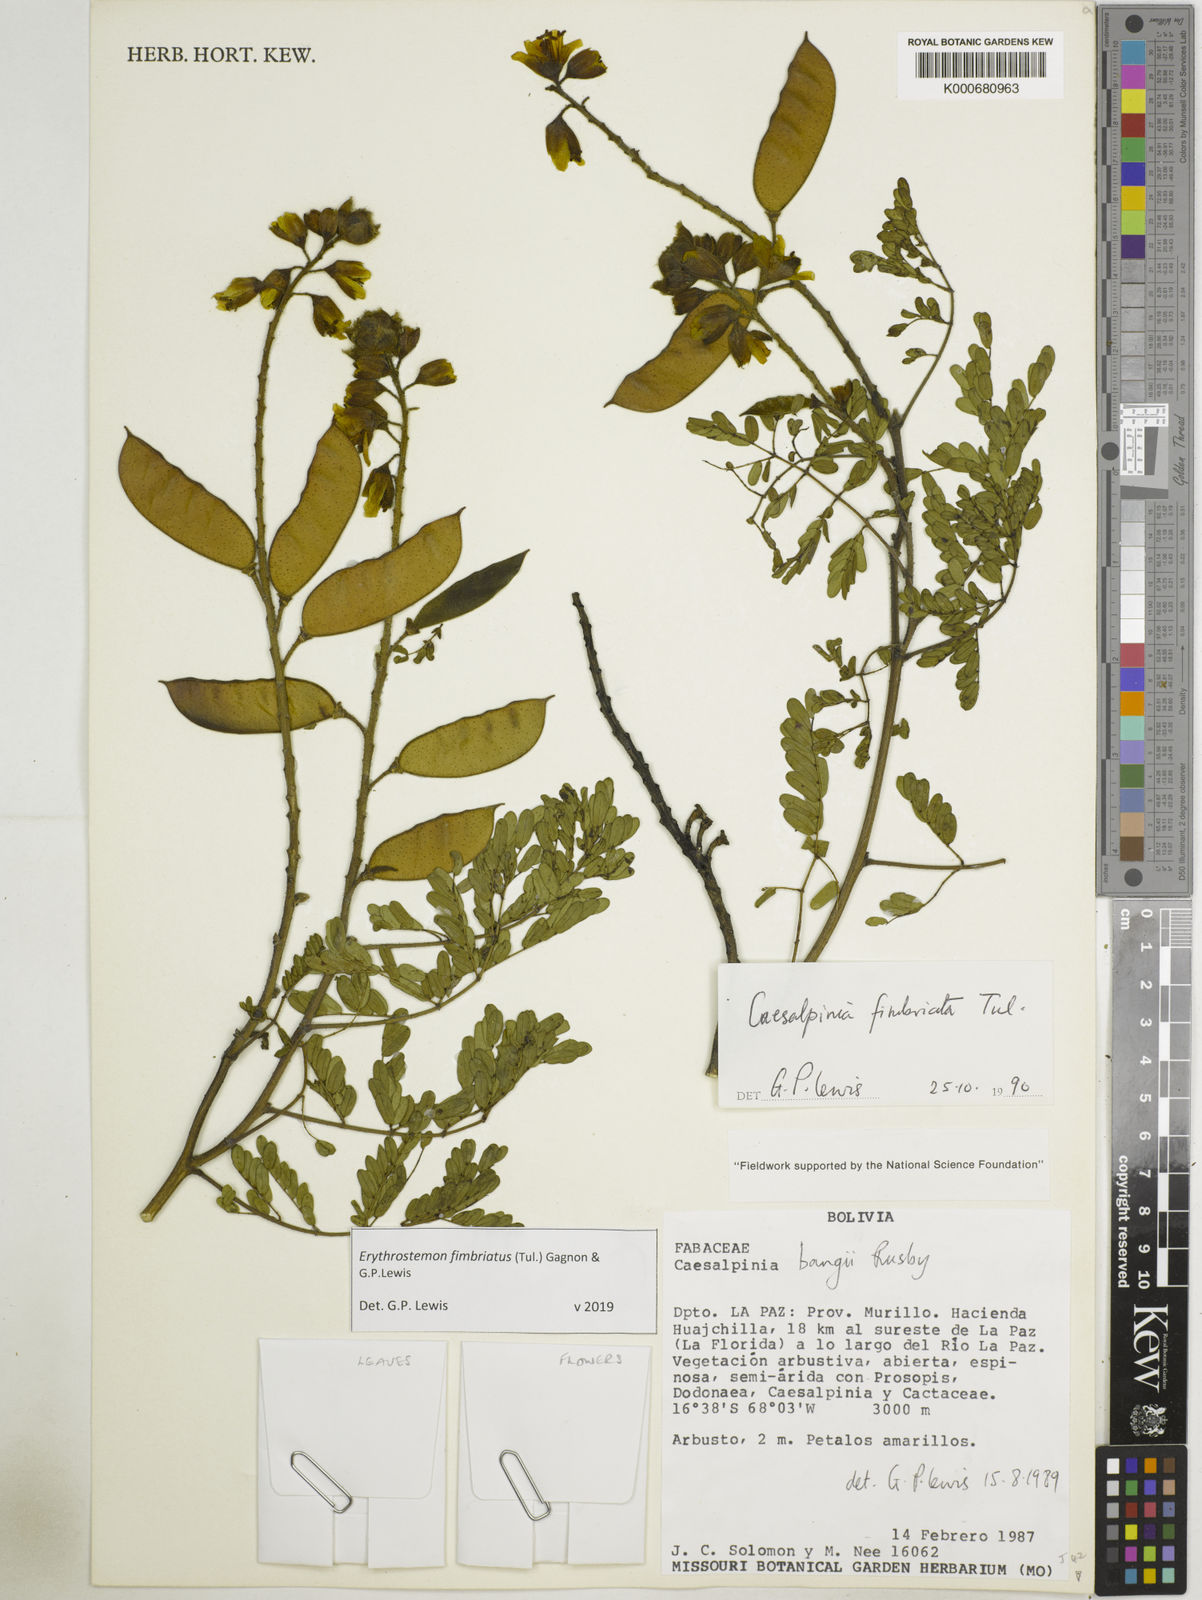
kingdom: Plantae
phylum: Tracheophyta
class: Magnoliopsida
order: Fabales
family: Fabaceae
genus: Erythrostemon
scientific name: Erythrostemon fimbriatus
